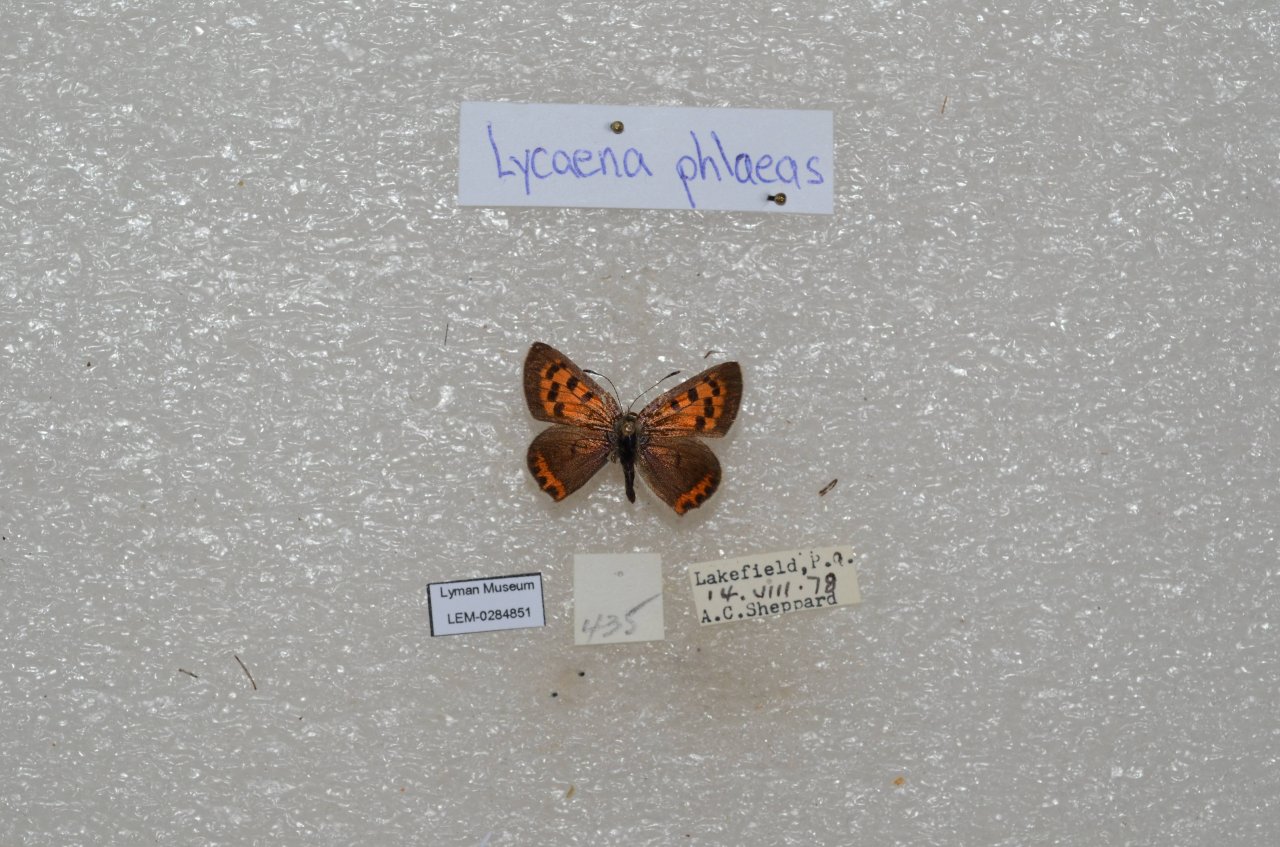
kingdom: Animalia
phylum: Arthropoda
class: Insecta
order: Lepidoptera
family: Lycaenidae
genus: Lycaena
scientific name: Lycaena phlaeas
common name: American Copper
